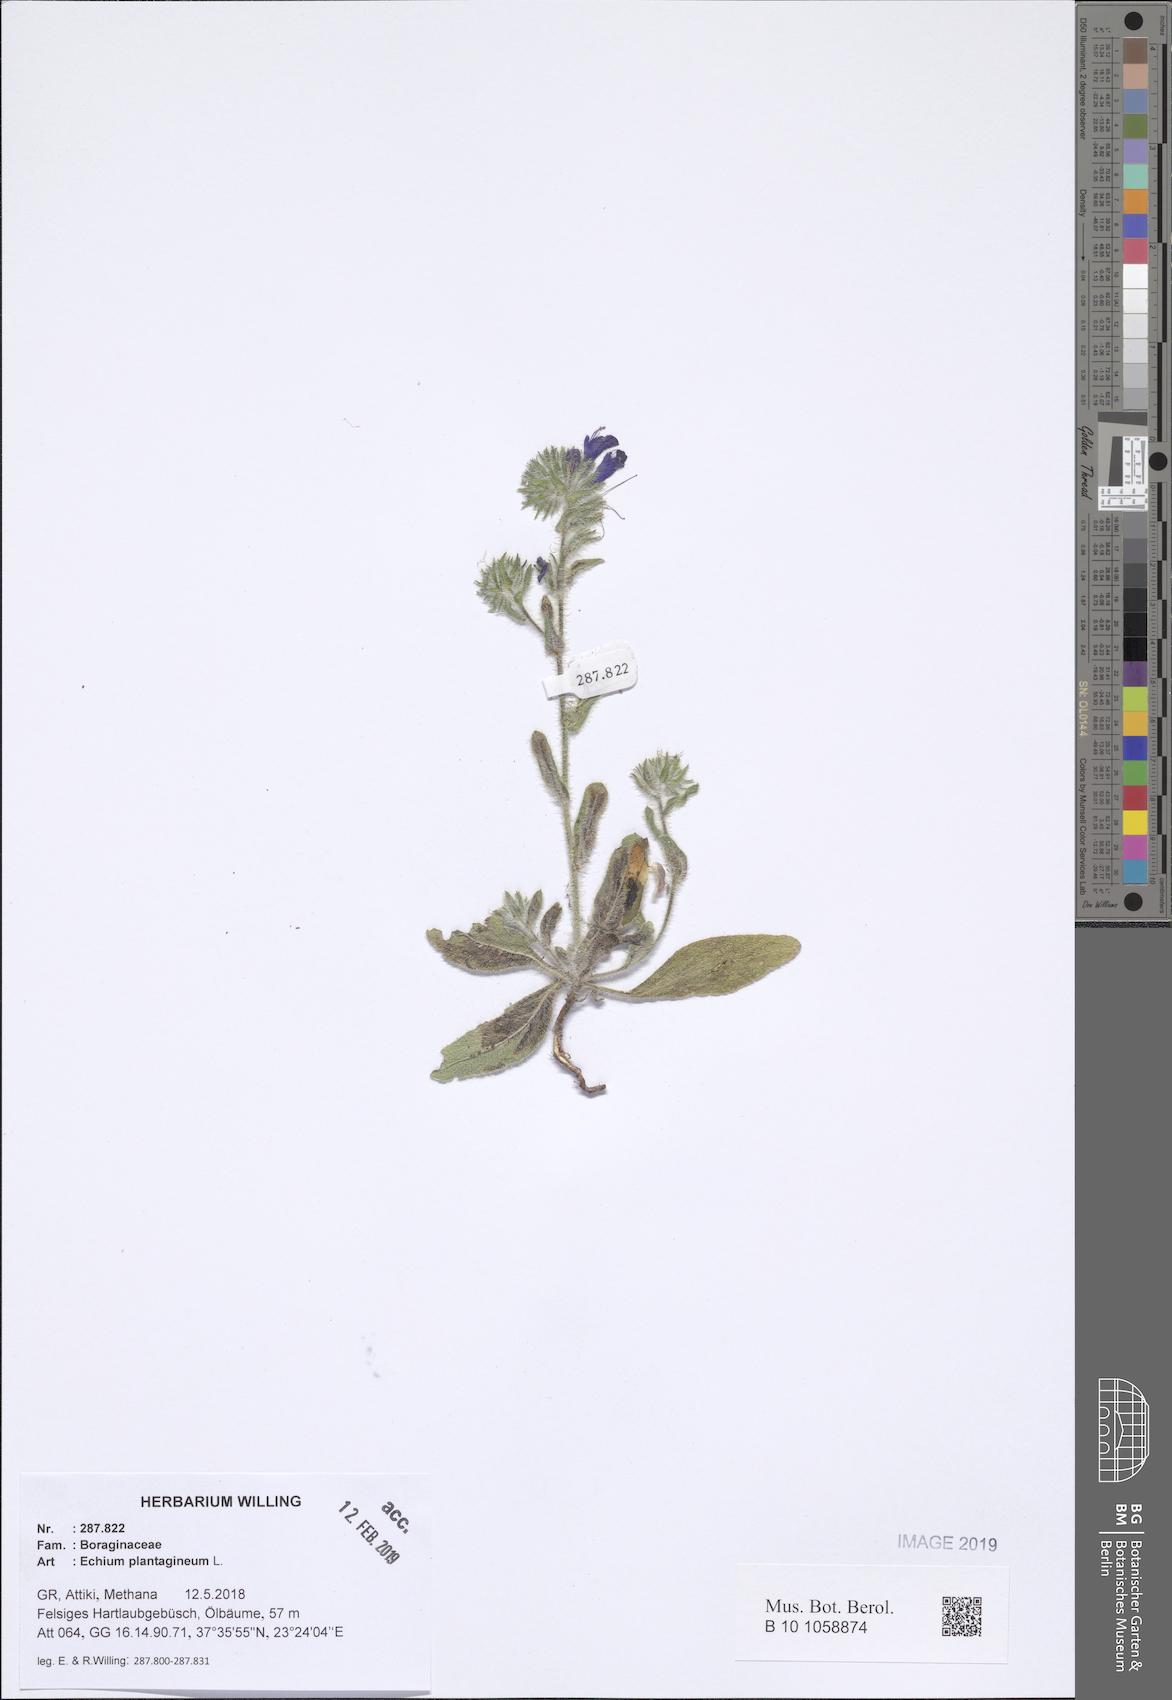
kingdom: Plantae
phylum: Tracheophyta
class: Magnoliopsida
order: Boraginales
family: Boraginaceae
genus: Echium
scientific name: Echium plantagineum
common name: Purple viper's-bugloss
